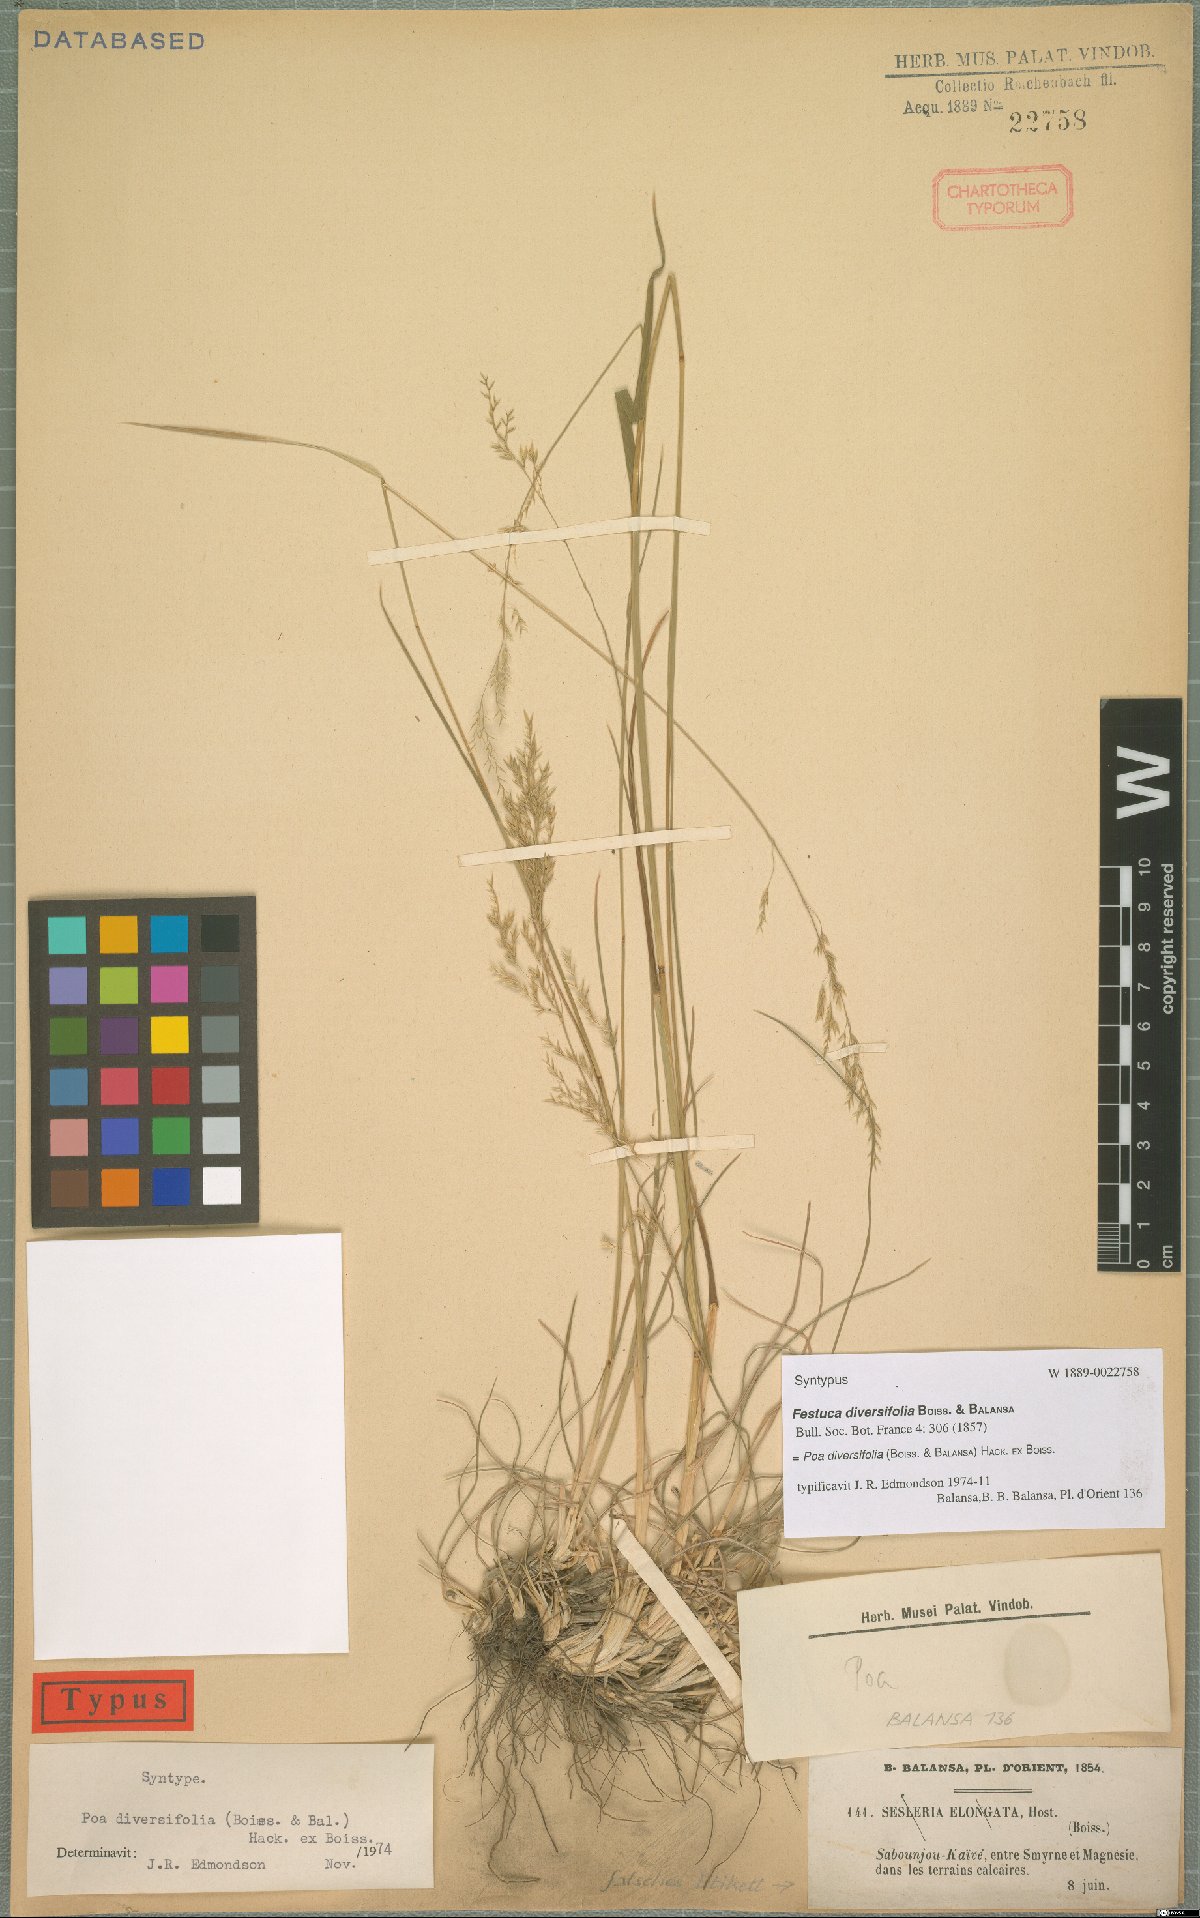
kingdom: Plantae
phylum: Tracheophyta
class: Liliopsida
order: Poales
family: Poaceae
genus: Poa
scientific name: Poa diversifolia
